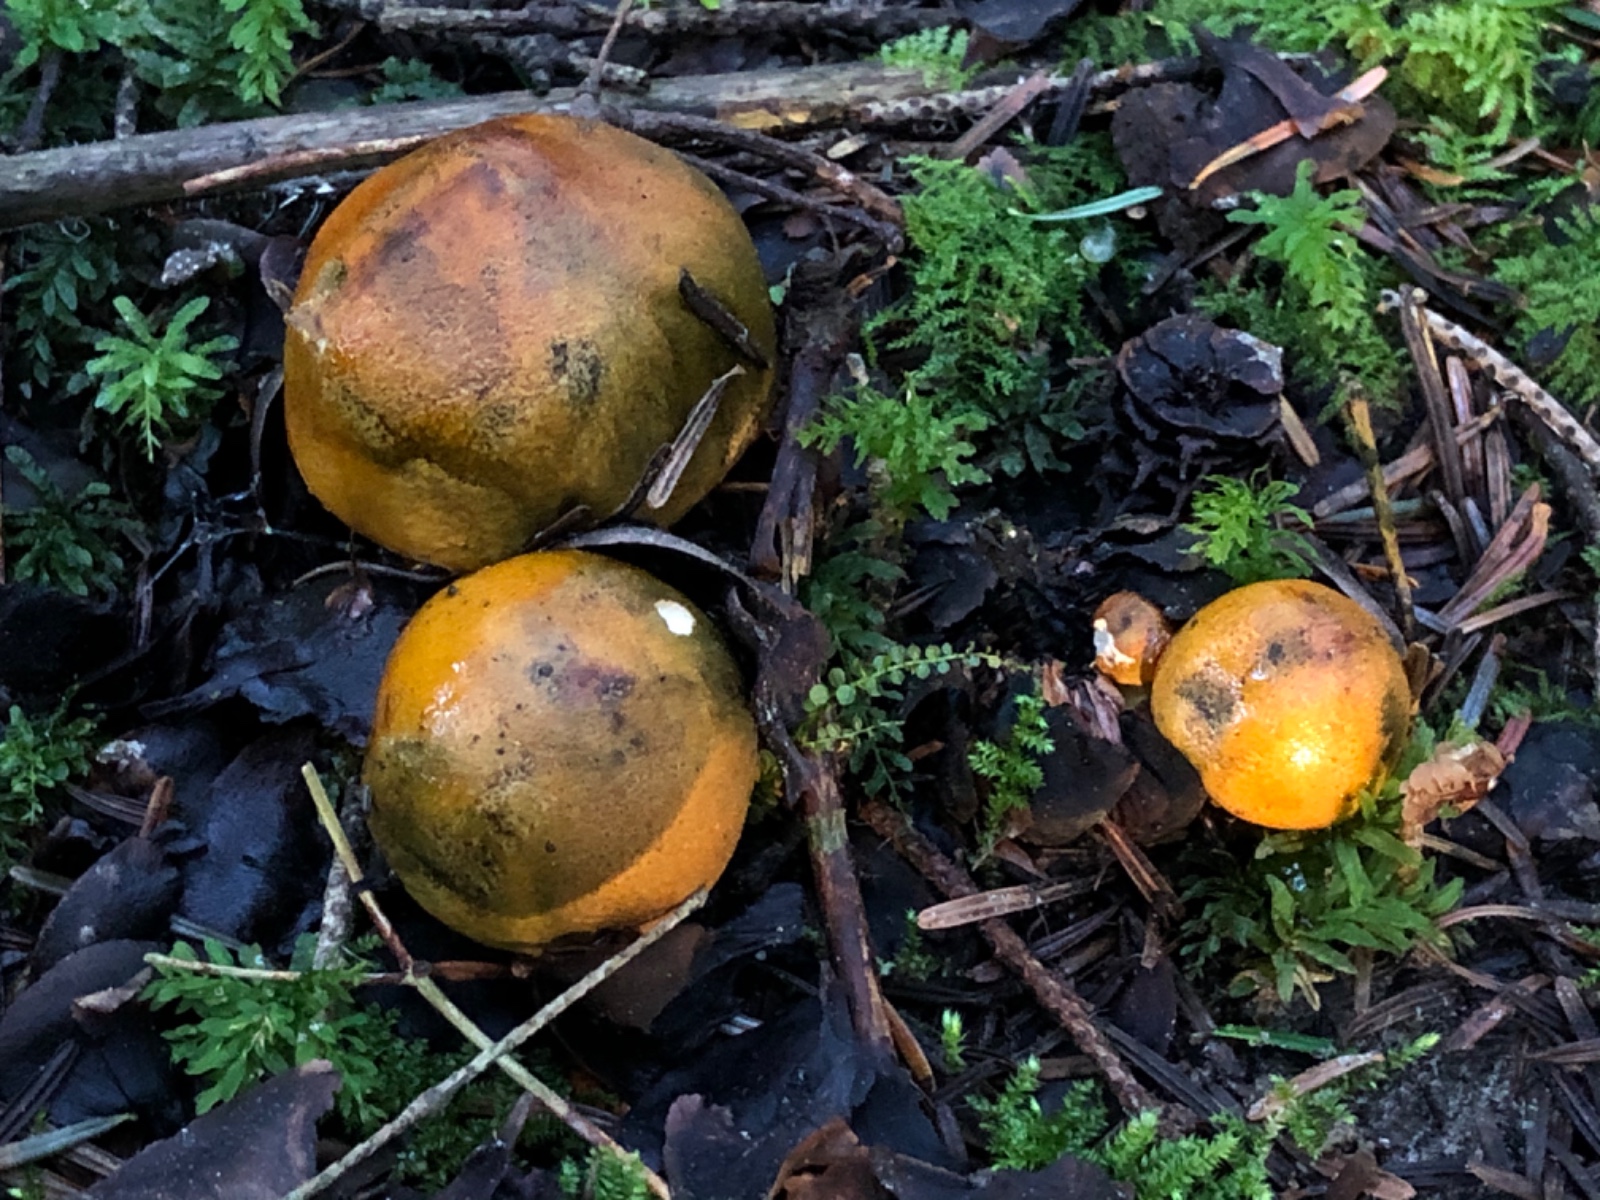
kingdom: Fungi
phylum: Basidiomycota
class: Agaricomycetes
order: Agaricales
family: Tricholomataceae
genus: Tricholoma
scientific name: Tricholoma aurantium
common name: orangegul ridderhat
